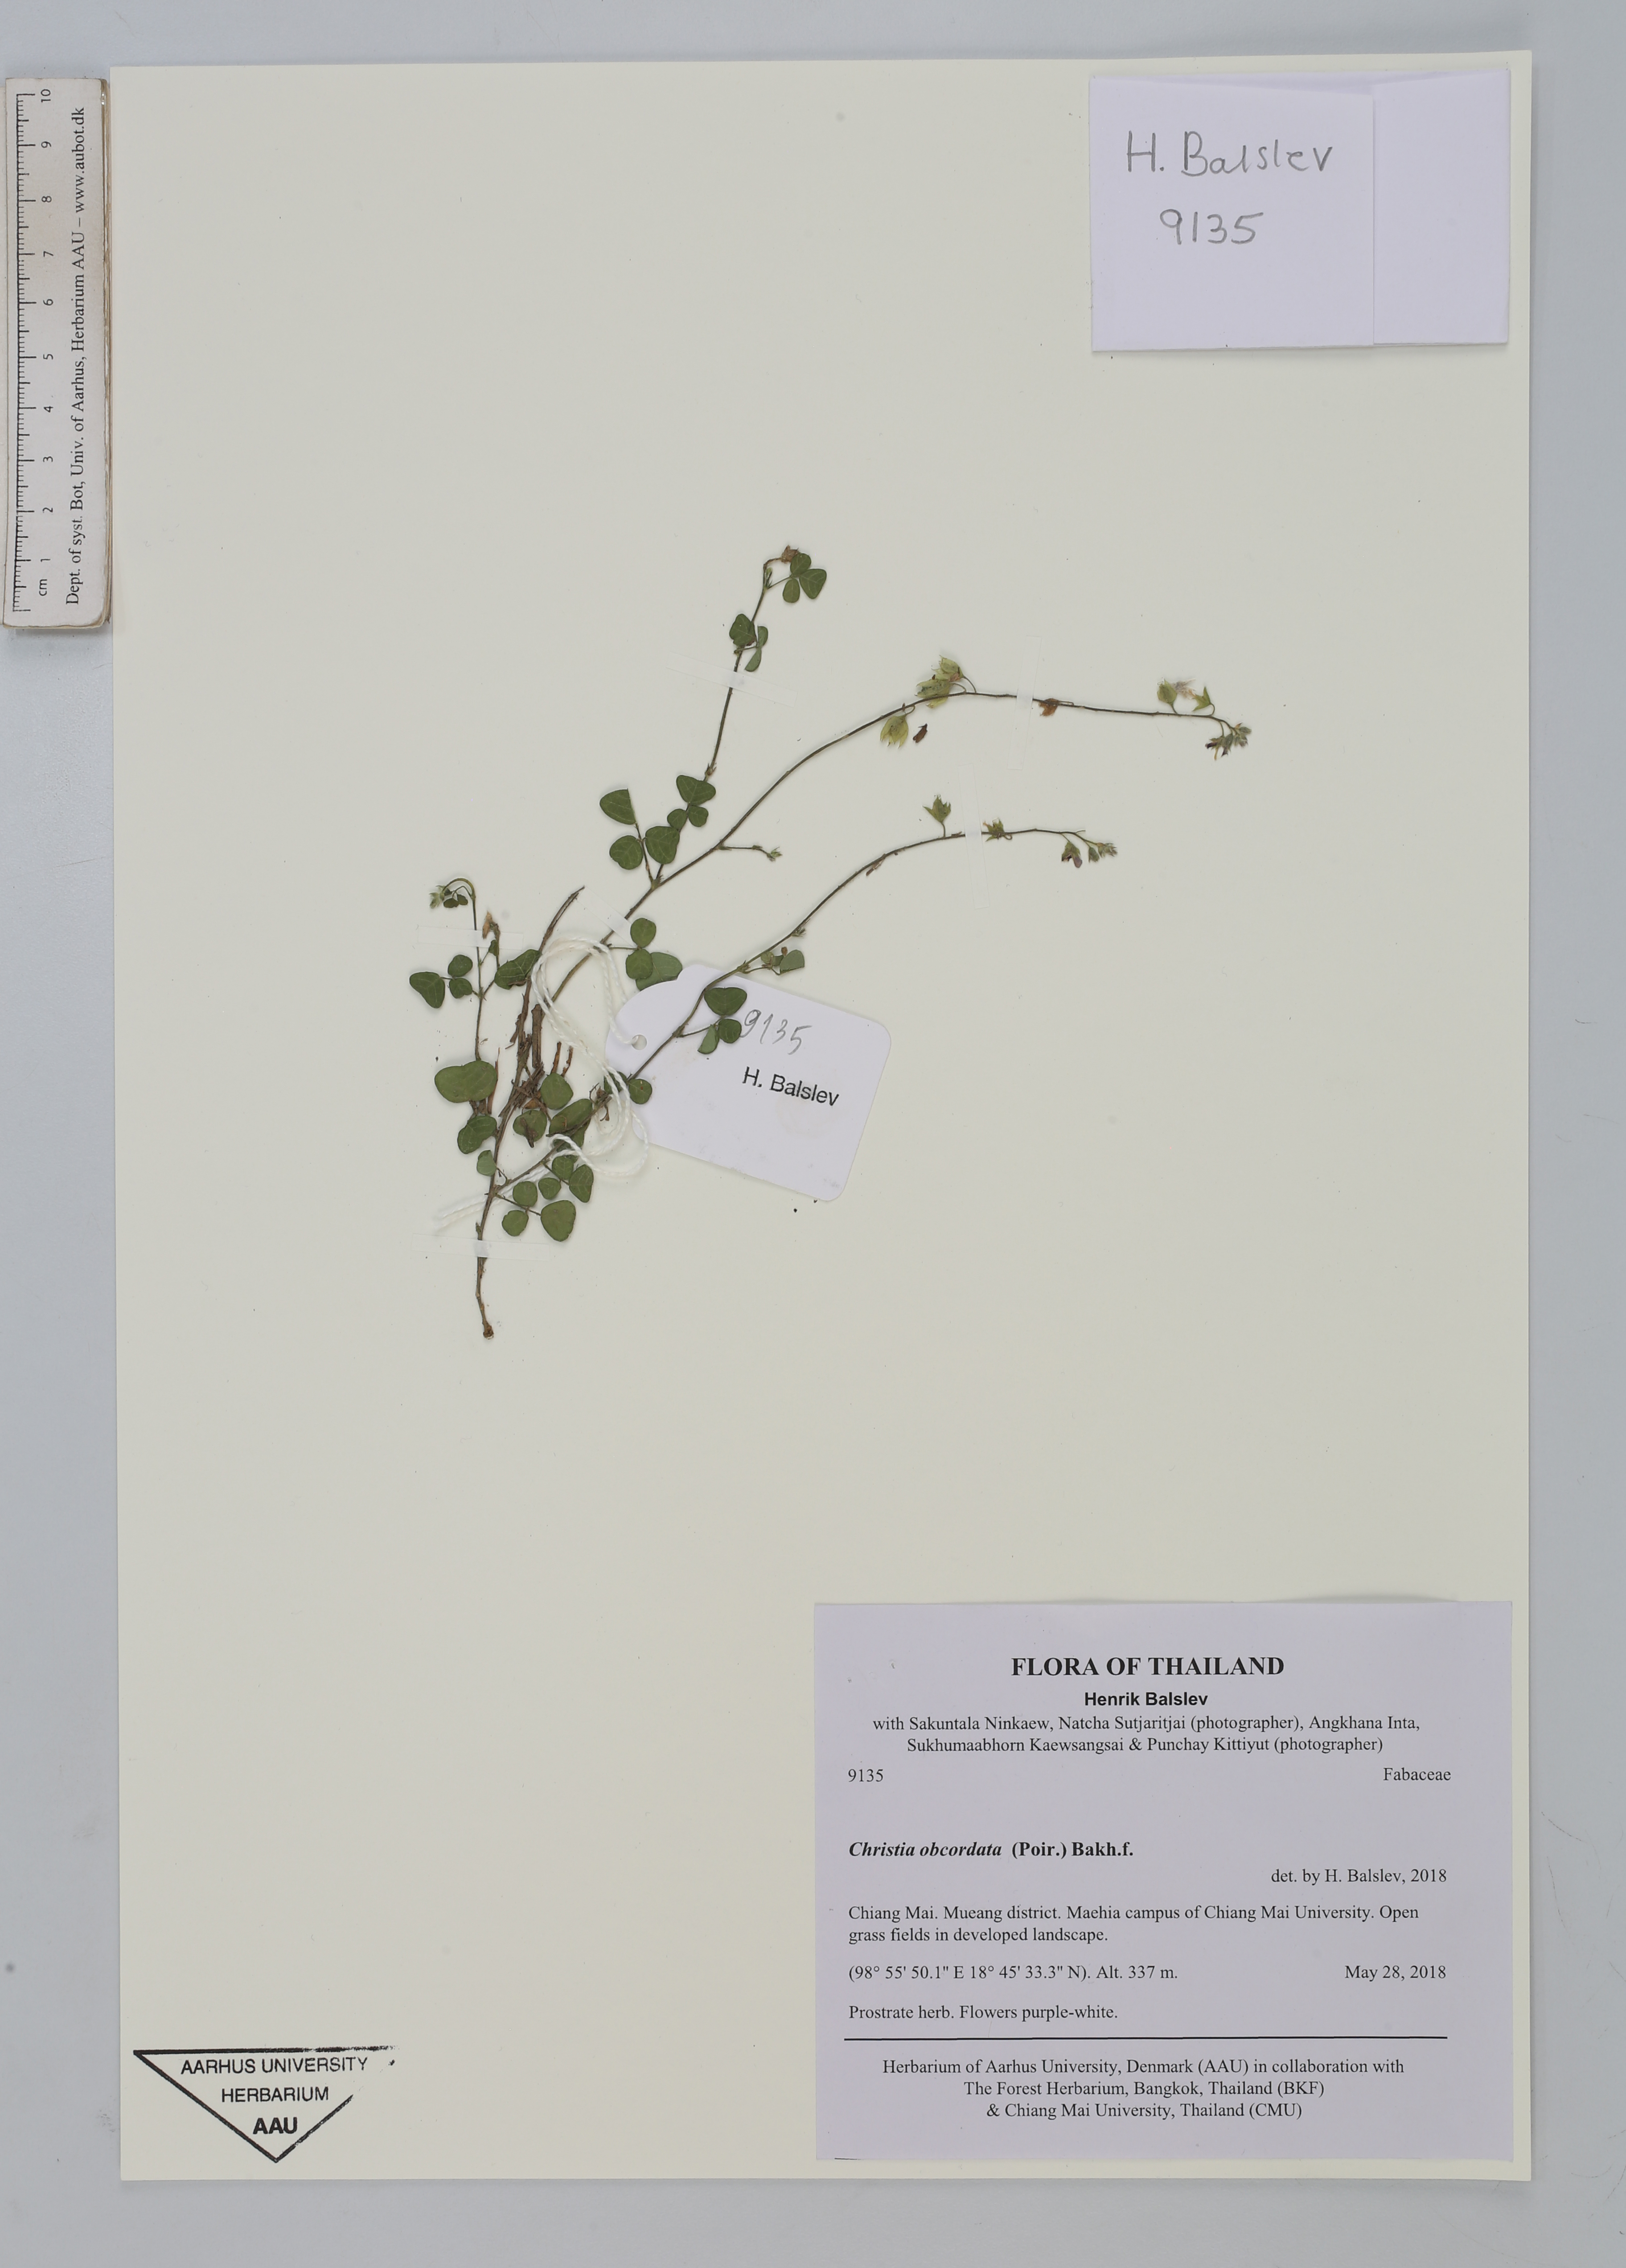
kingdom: Plantae
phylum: Tracheophyta
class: Magnoliopsida
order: Fabales
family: Fabaceae
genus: Christia
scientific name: Christia obcordata
